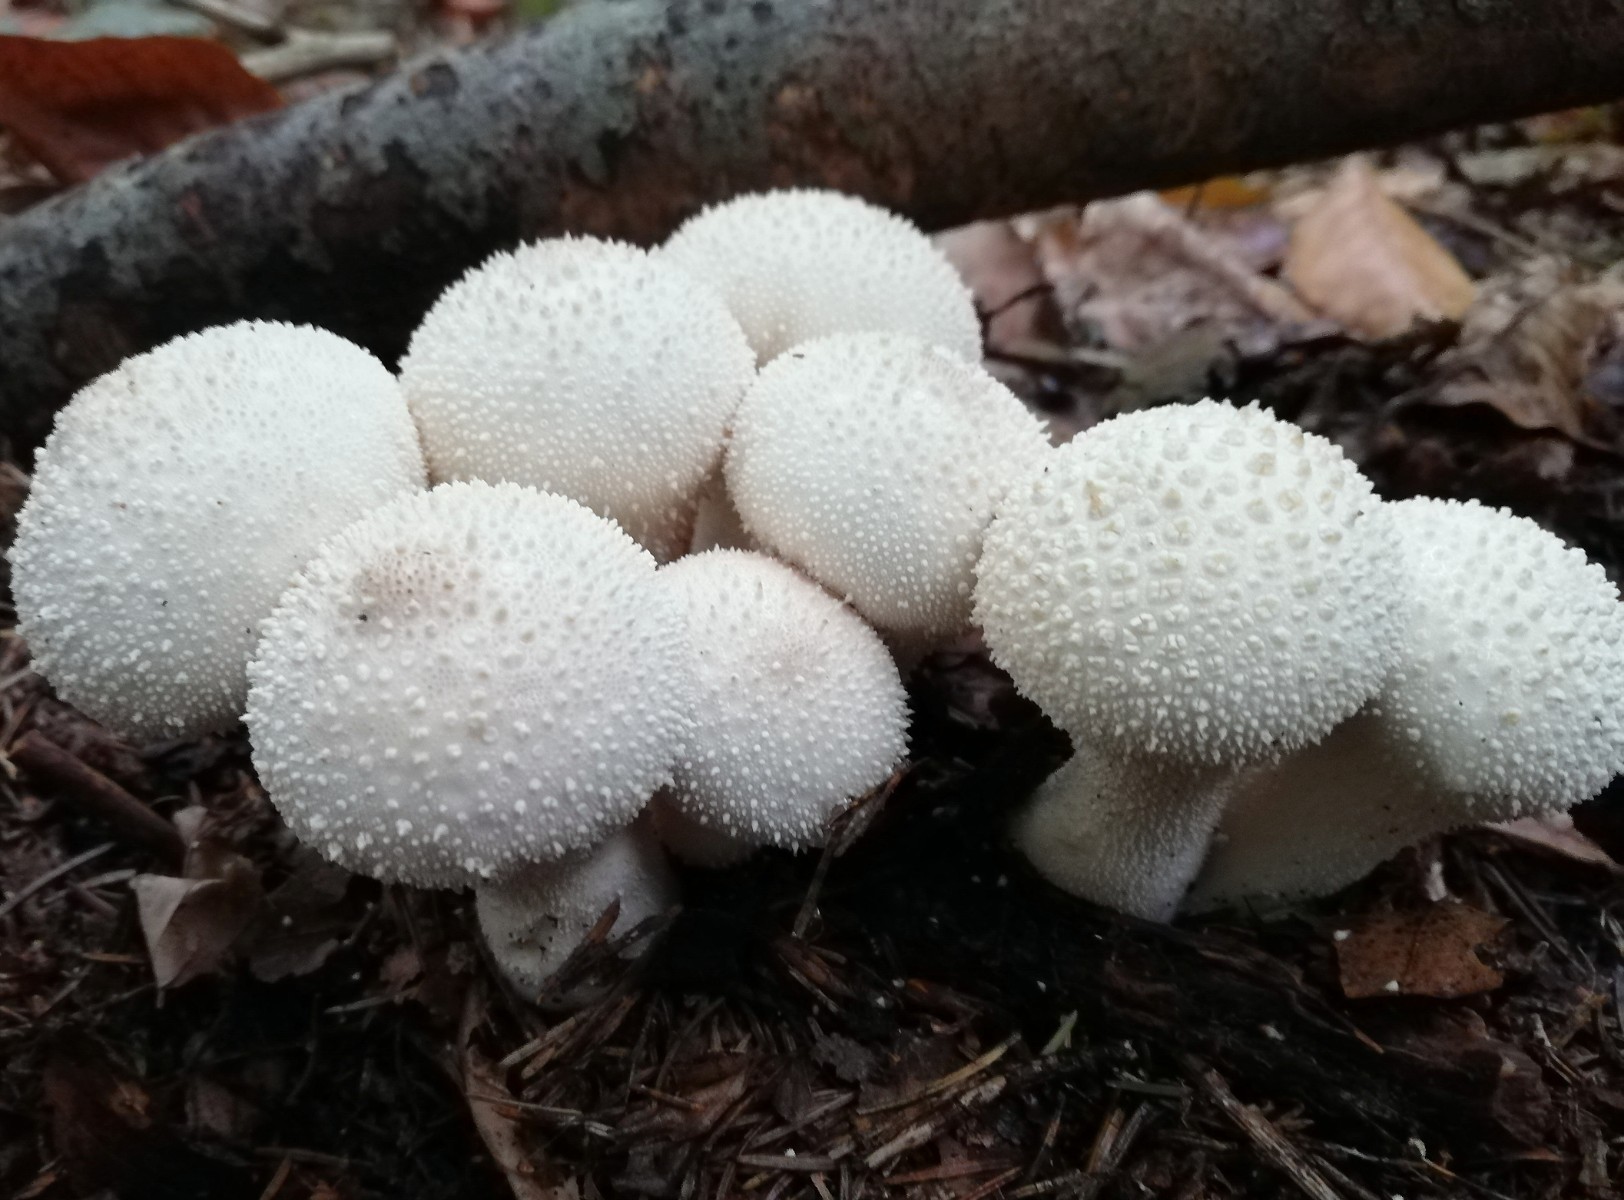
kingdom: Fungi
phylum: Basidiomycota
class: Agaricomycetes
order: Agaricales
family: Lycoperdaceae
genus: Lycoperdon
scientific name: Lycoperdon perlatum
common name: krystal-støvbold
